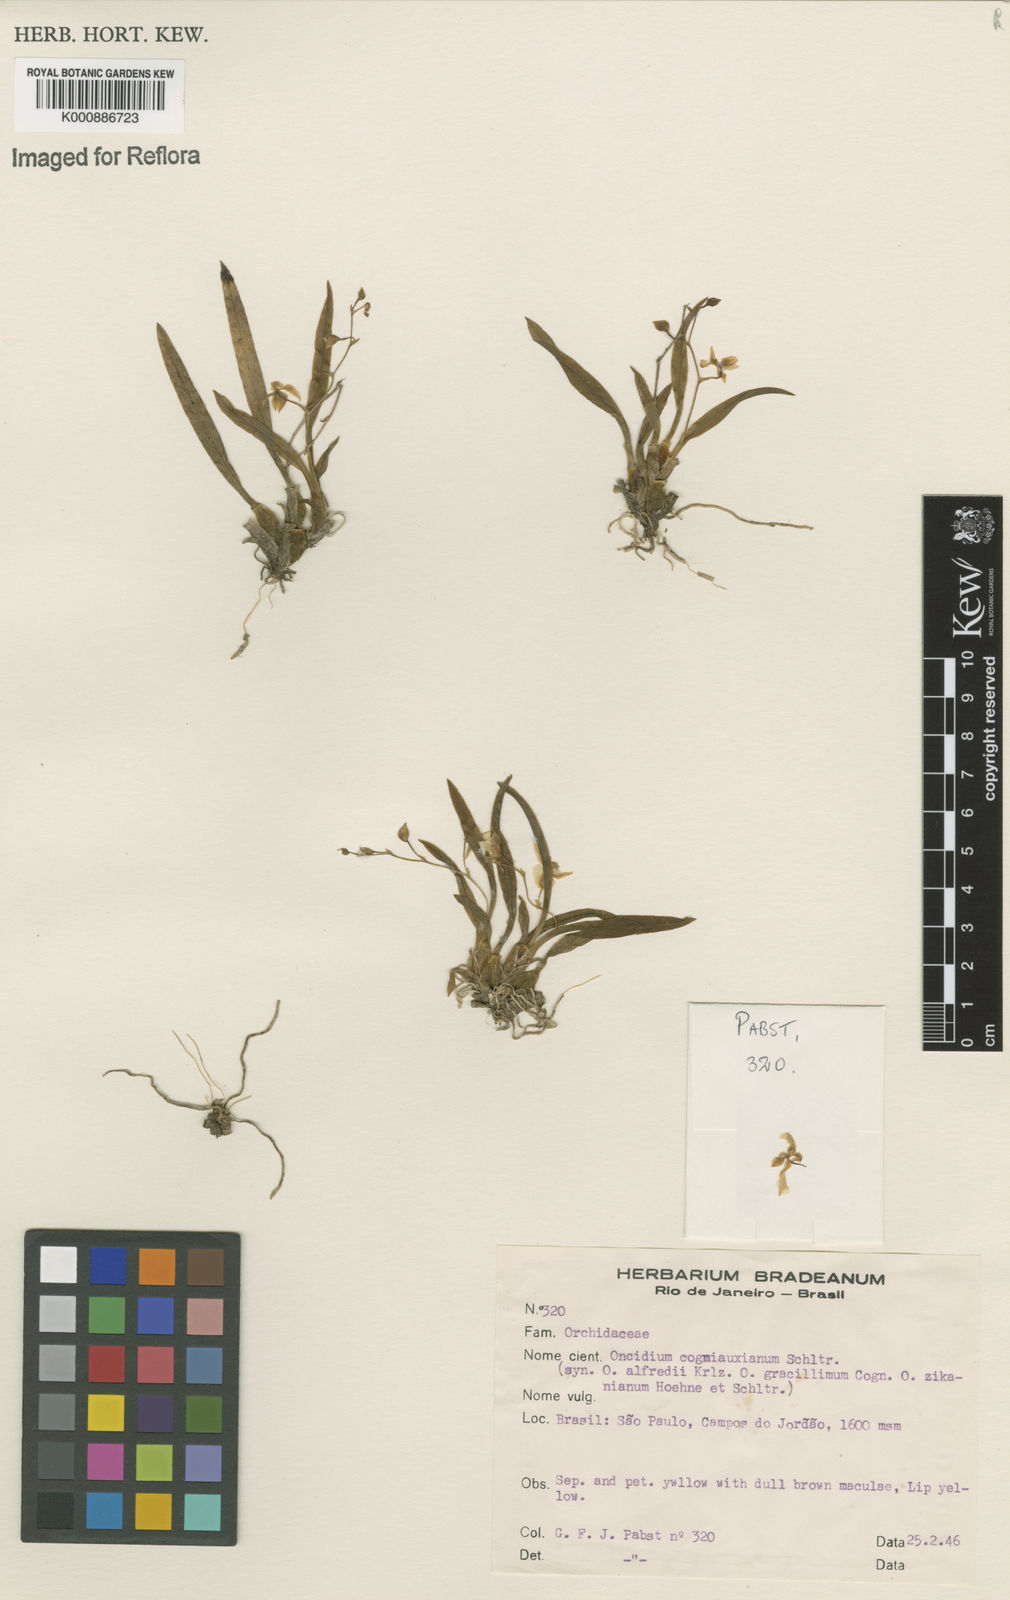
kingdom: Plantae
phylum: Tracheophyta
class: Liliopsida
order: Asparagales
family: Orchidaceae
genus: Gomesa
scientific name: Gomesa cogniauxiana
